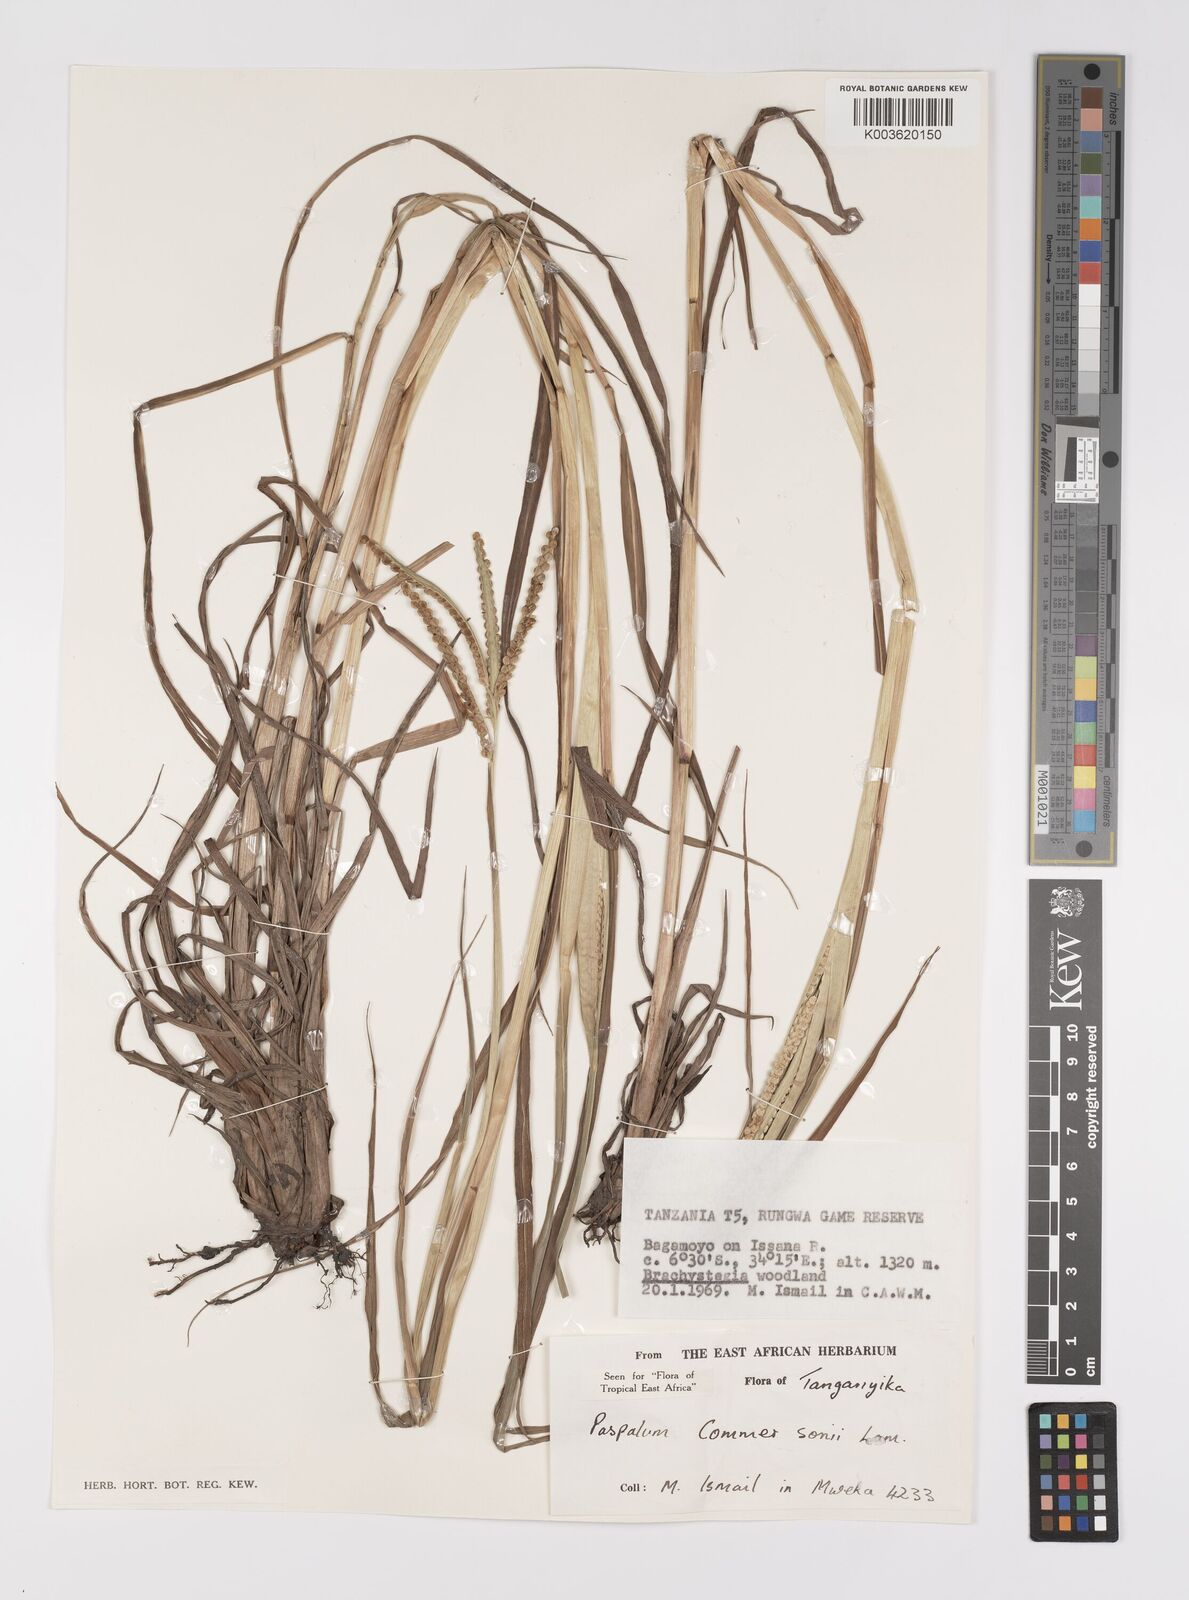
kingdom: Plantae
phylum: Tracheophyta
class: Liliopsida
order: Poales
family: Poaceae
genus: Paspalum
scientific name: Paspalum scrobiculatum
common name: Kodo millet
